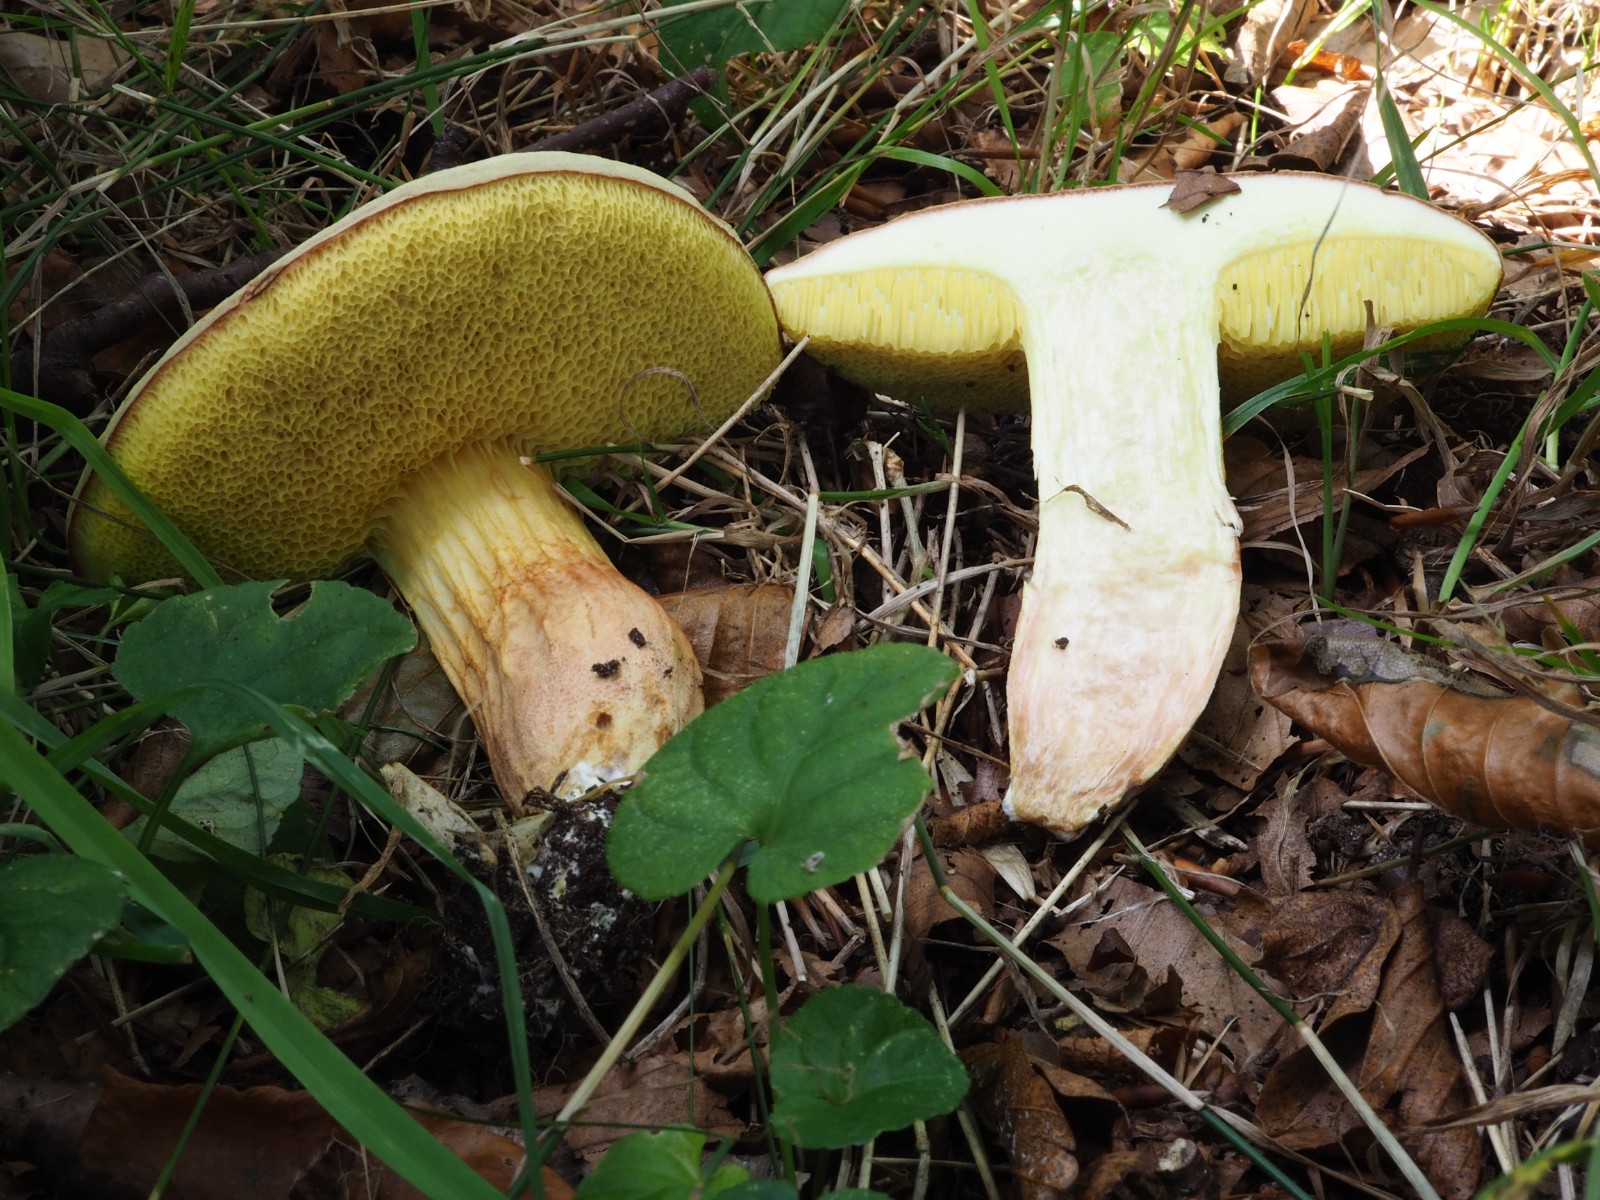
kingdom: Fungi
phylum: Basidiomycota
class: Agaricomycetes
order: Boletales
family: Boletaceae
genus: Xerocomus
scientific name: Xerocomus subtomentosus
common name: filtet rørhat
